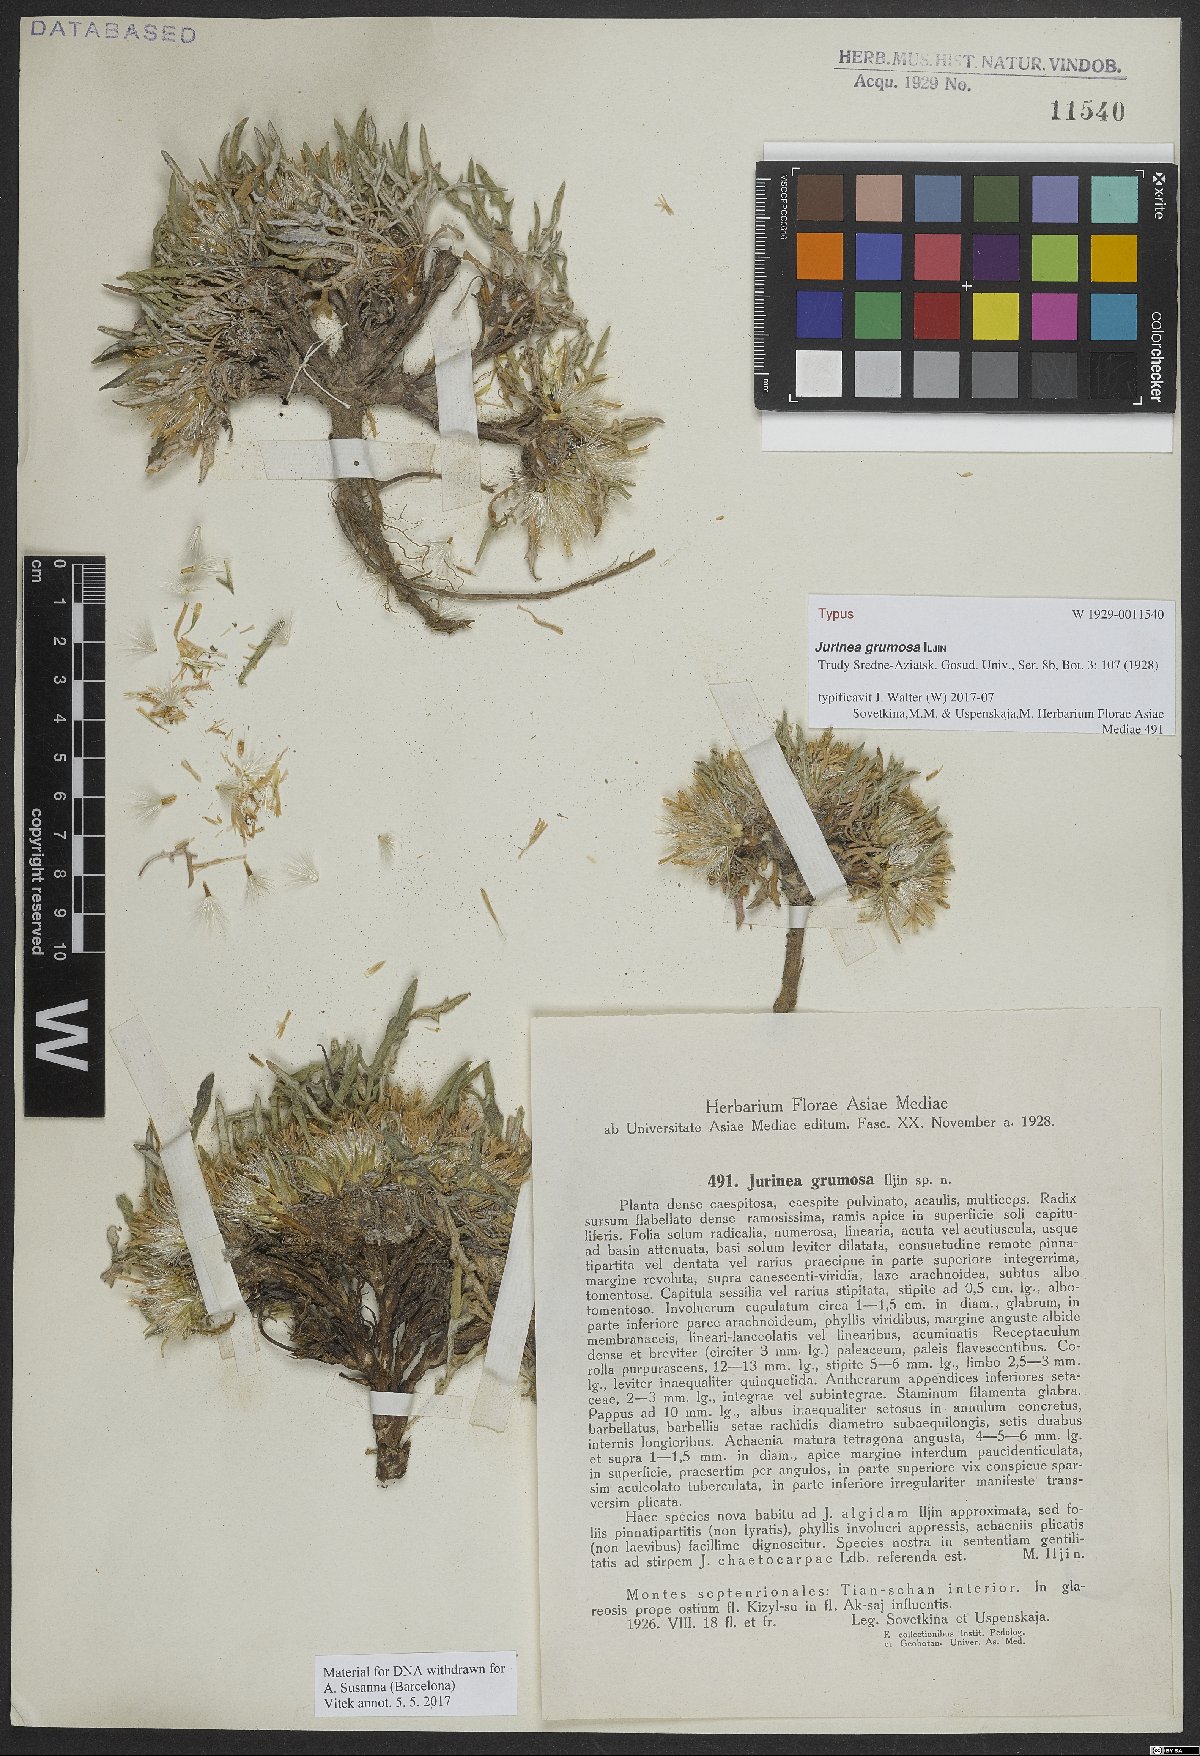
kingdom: Plantae
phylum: Tracheophyta
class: Magnoliopsida
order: Asterales
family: Asteraceae
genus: Jurinea
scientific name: Jurinea grumosa
